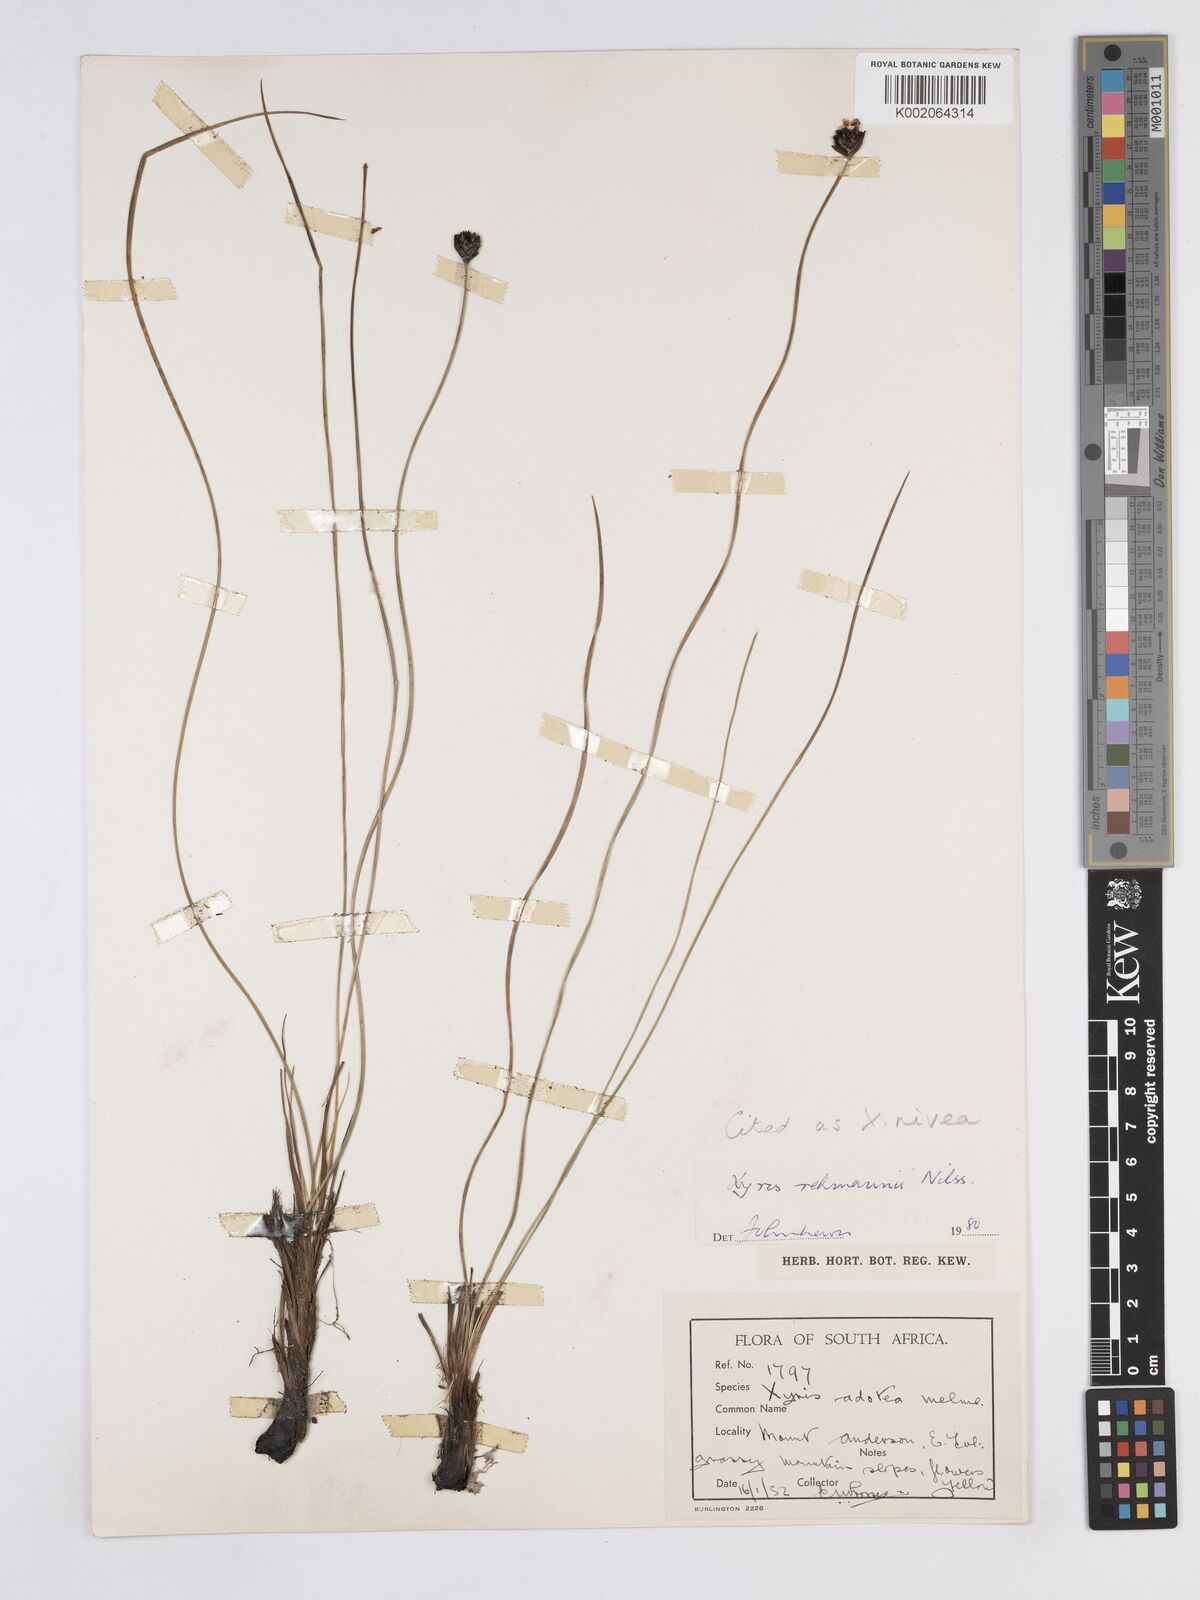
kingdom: Plantae
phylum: Tracheophyta
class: Liliopsida
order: Poales
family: Xyridaceae
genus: Xyris
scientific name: Xyris nivea
